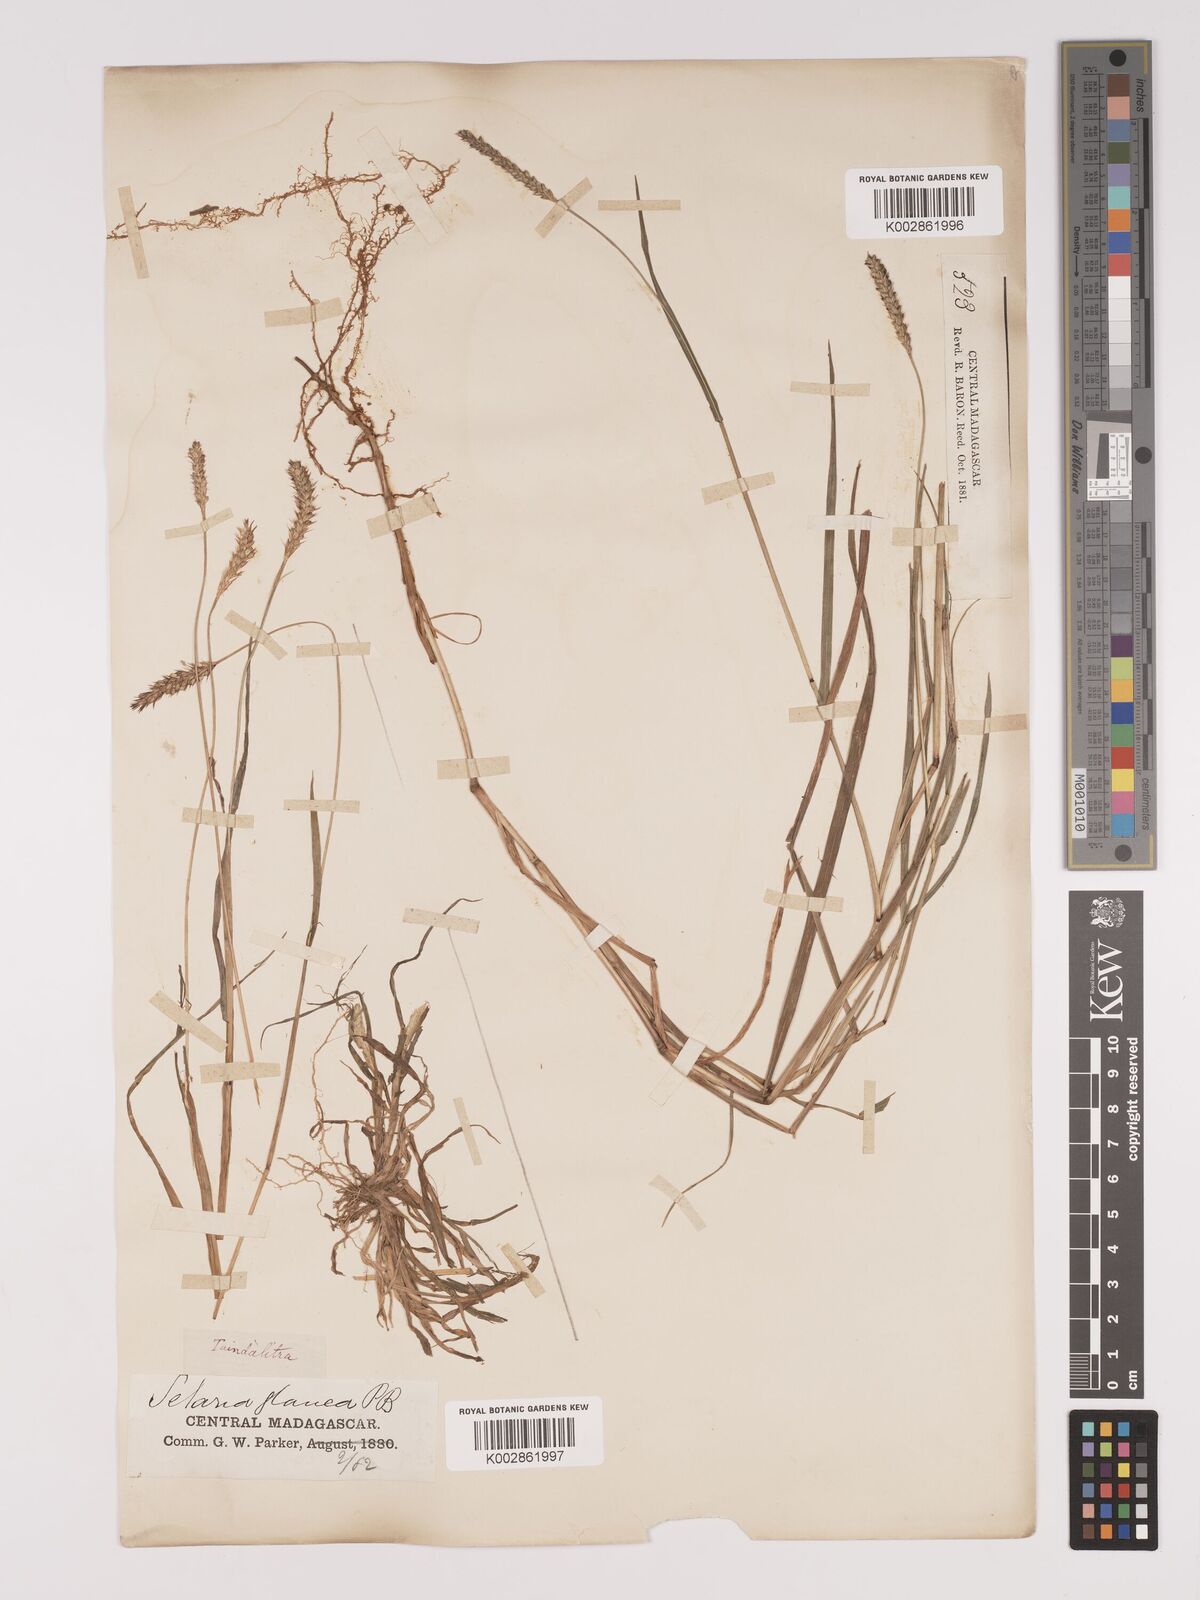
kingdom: Plantae
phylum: Tracheophyta
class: Liliopsida
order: Poales
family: Poaceae
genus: Setaria
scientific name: Setaria pumila
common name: Yellow bristle-grass
